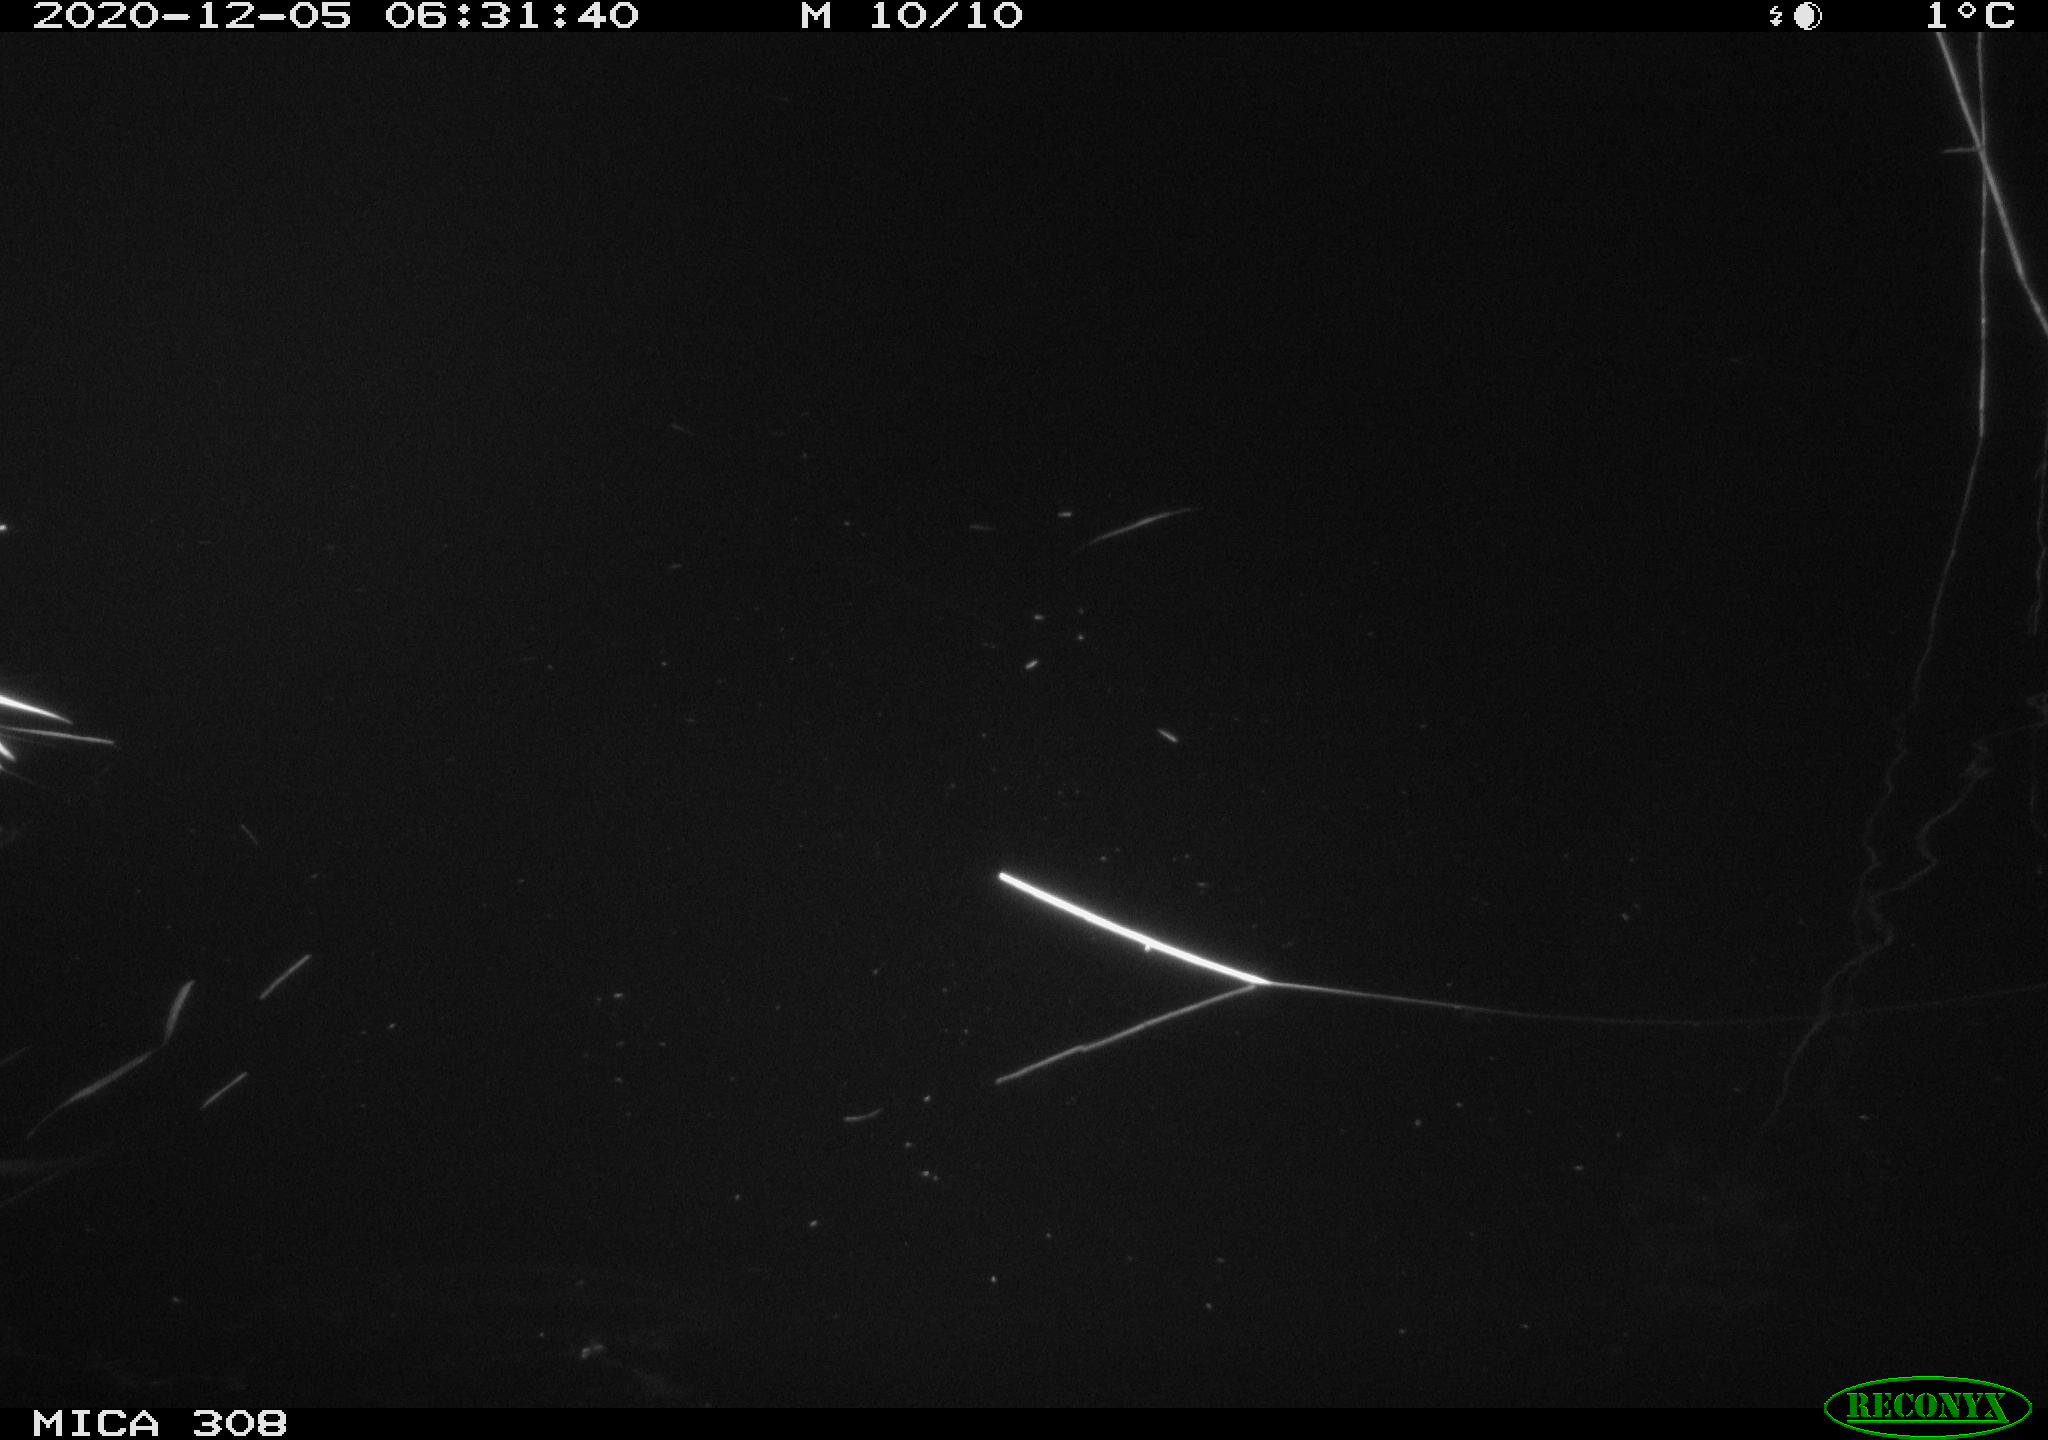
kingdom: Animalia
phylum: Chordata
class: Aves
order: Anseriformes
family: Anatidae
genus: Anas
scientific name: Anas platyrhynchos
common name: Mallard
